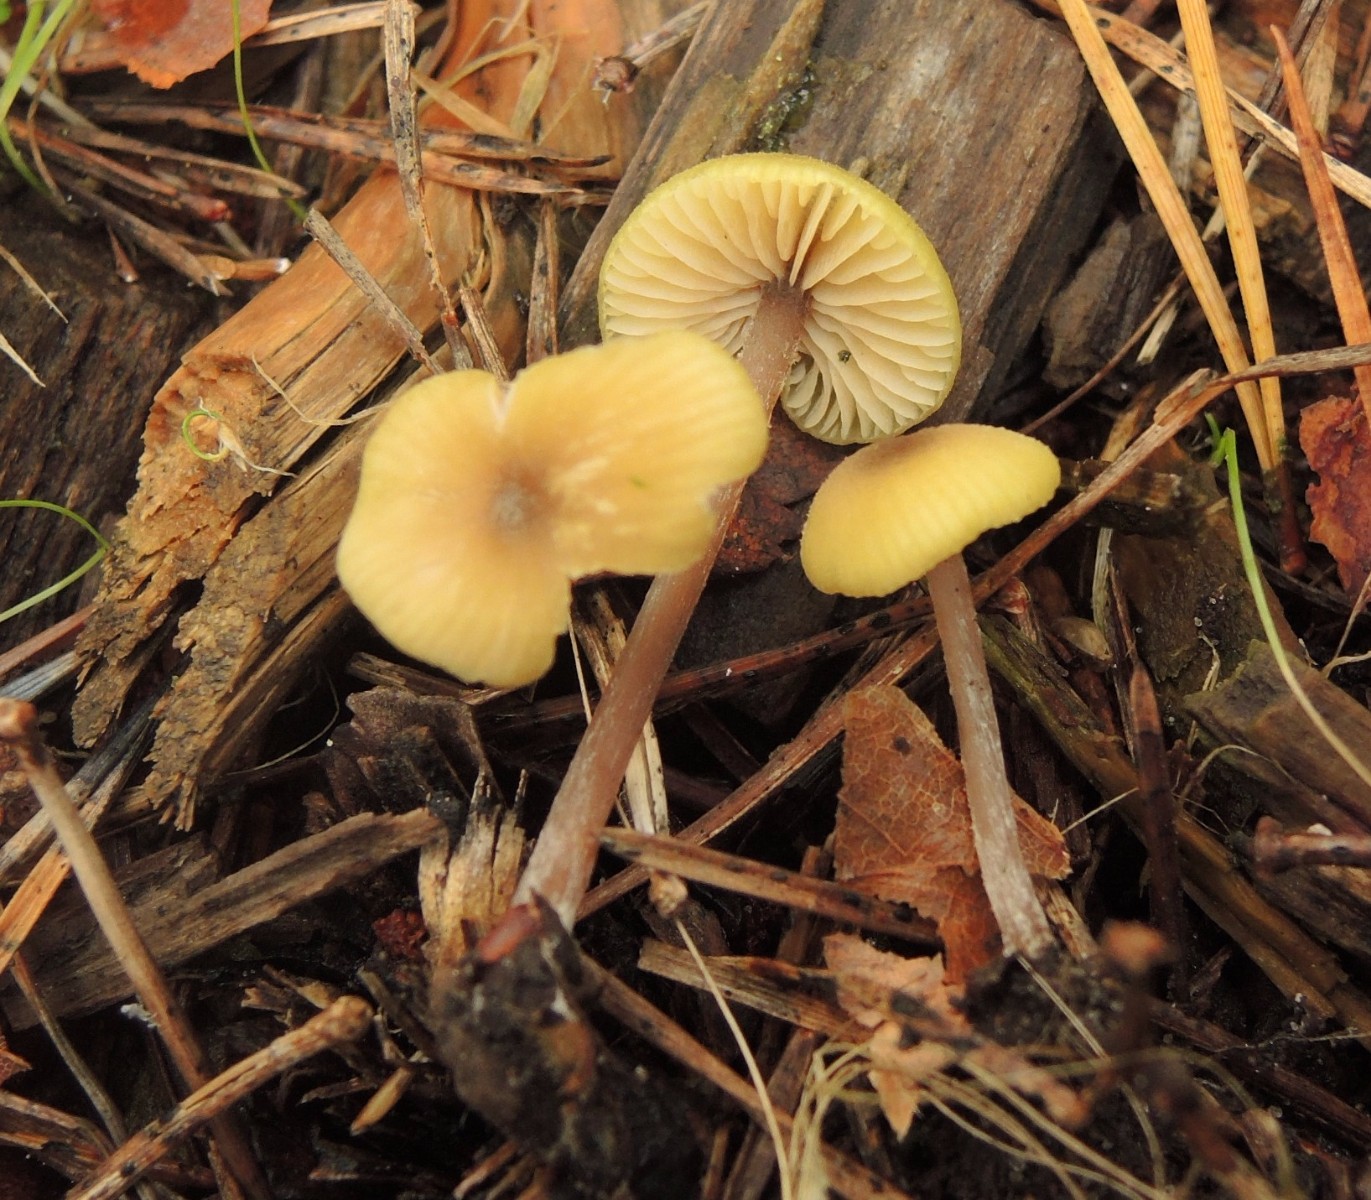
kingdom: Fungi
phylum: Basidiomycota
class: Agaricomycetes
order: Agaricales
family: Entolomataceae
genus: Entoloma
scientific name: Entoloma pleopodium
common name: duftende rødblad
